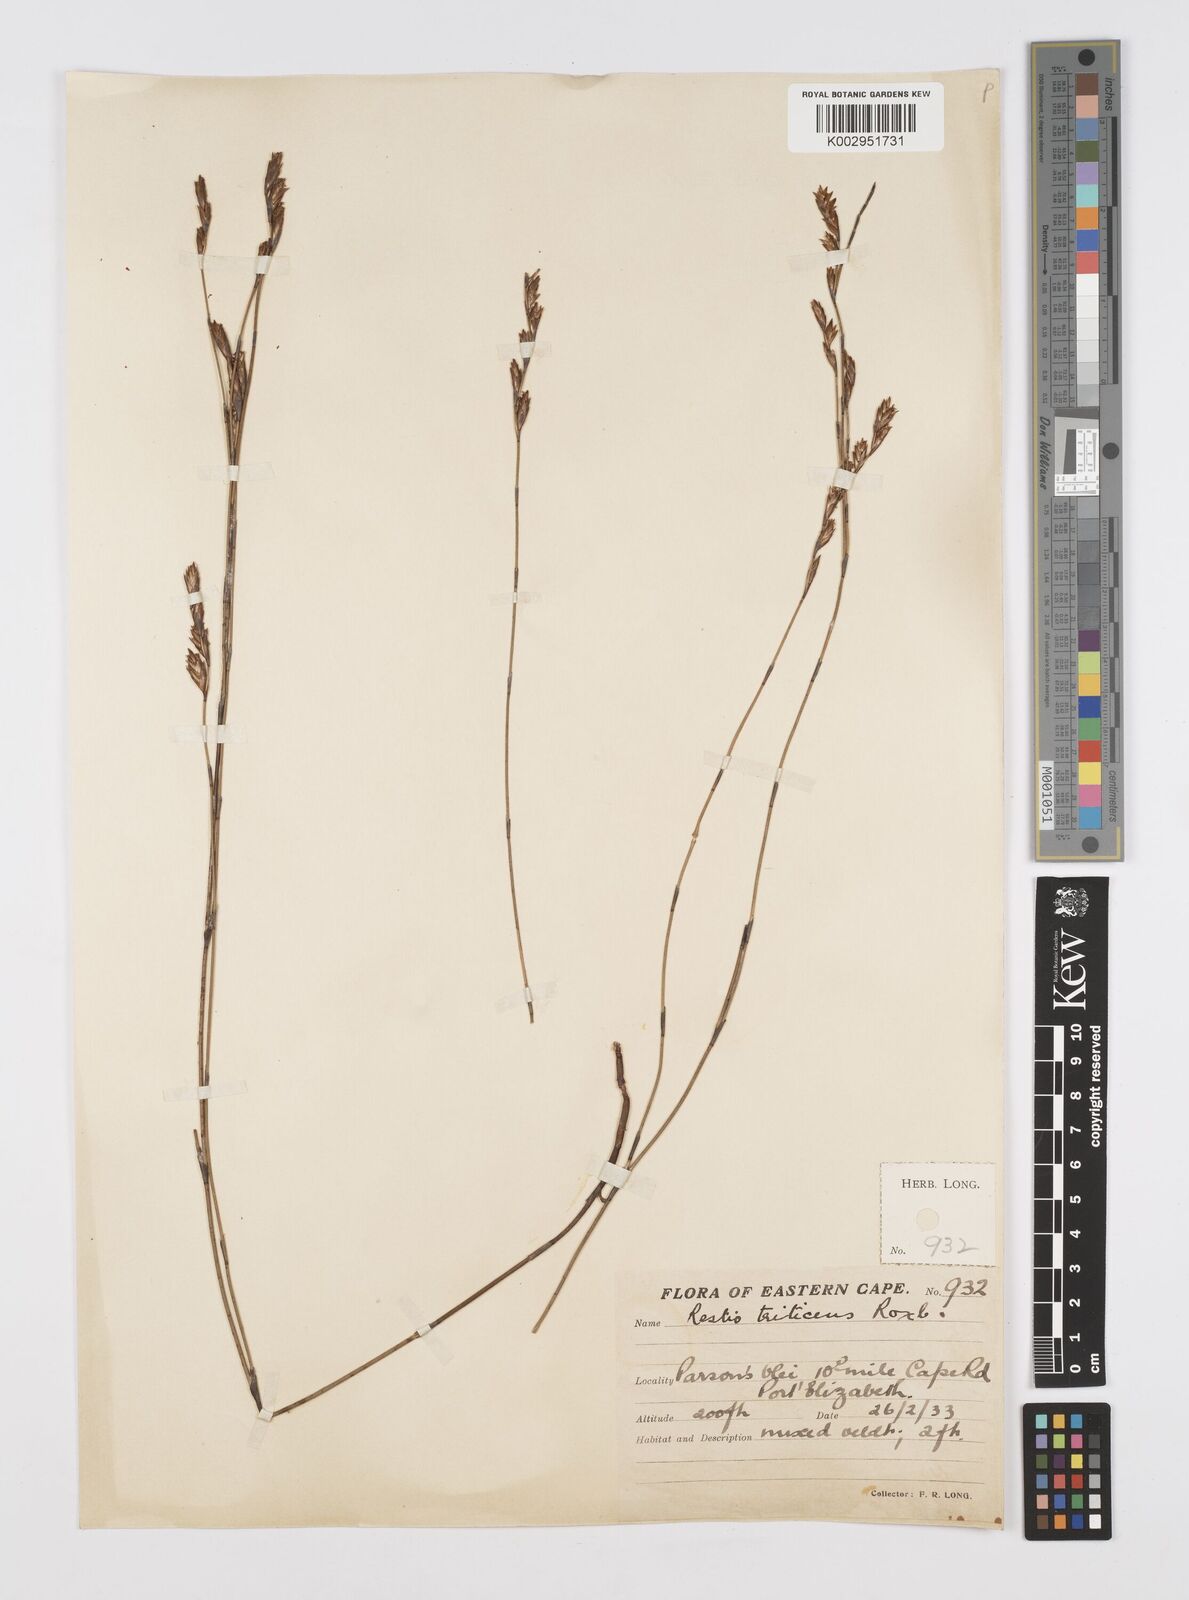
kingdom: Plantae
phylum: Tracheophyta
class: Liliopsida
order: Poales
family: Restionaceae
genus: Restio
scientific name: Restio triticeus
